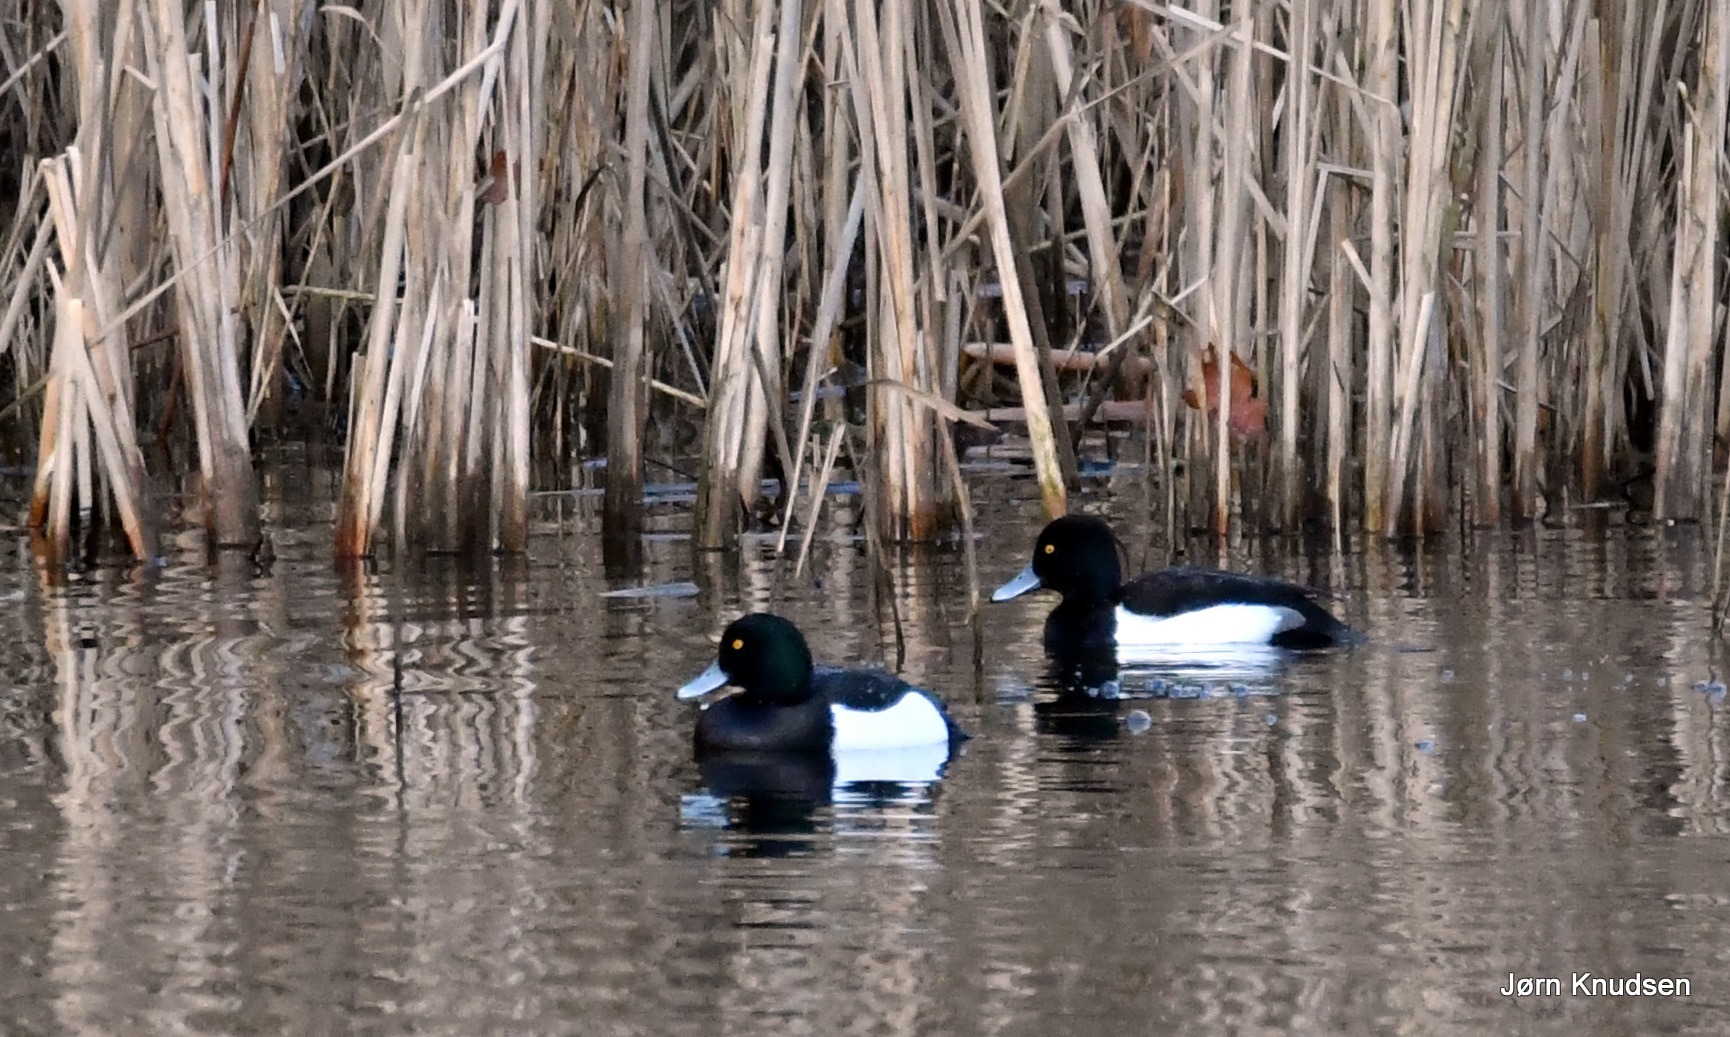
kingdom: Animalia
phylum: Chordata
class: Aves
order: Anseriformes
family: Anatidae
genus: Aythya
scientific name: Aythya fuligula
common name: Troldand
